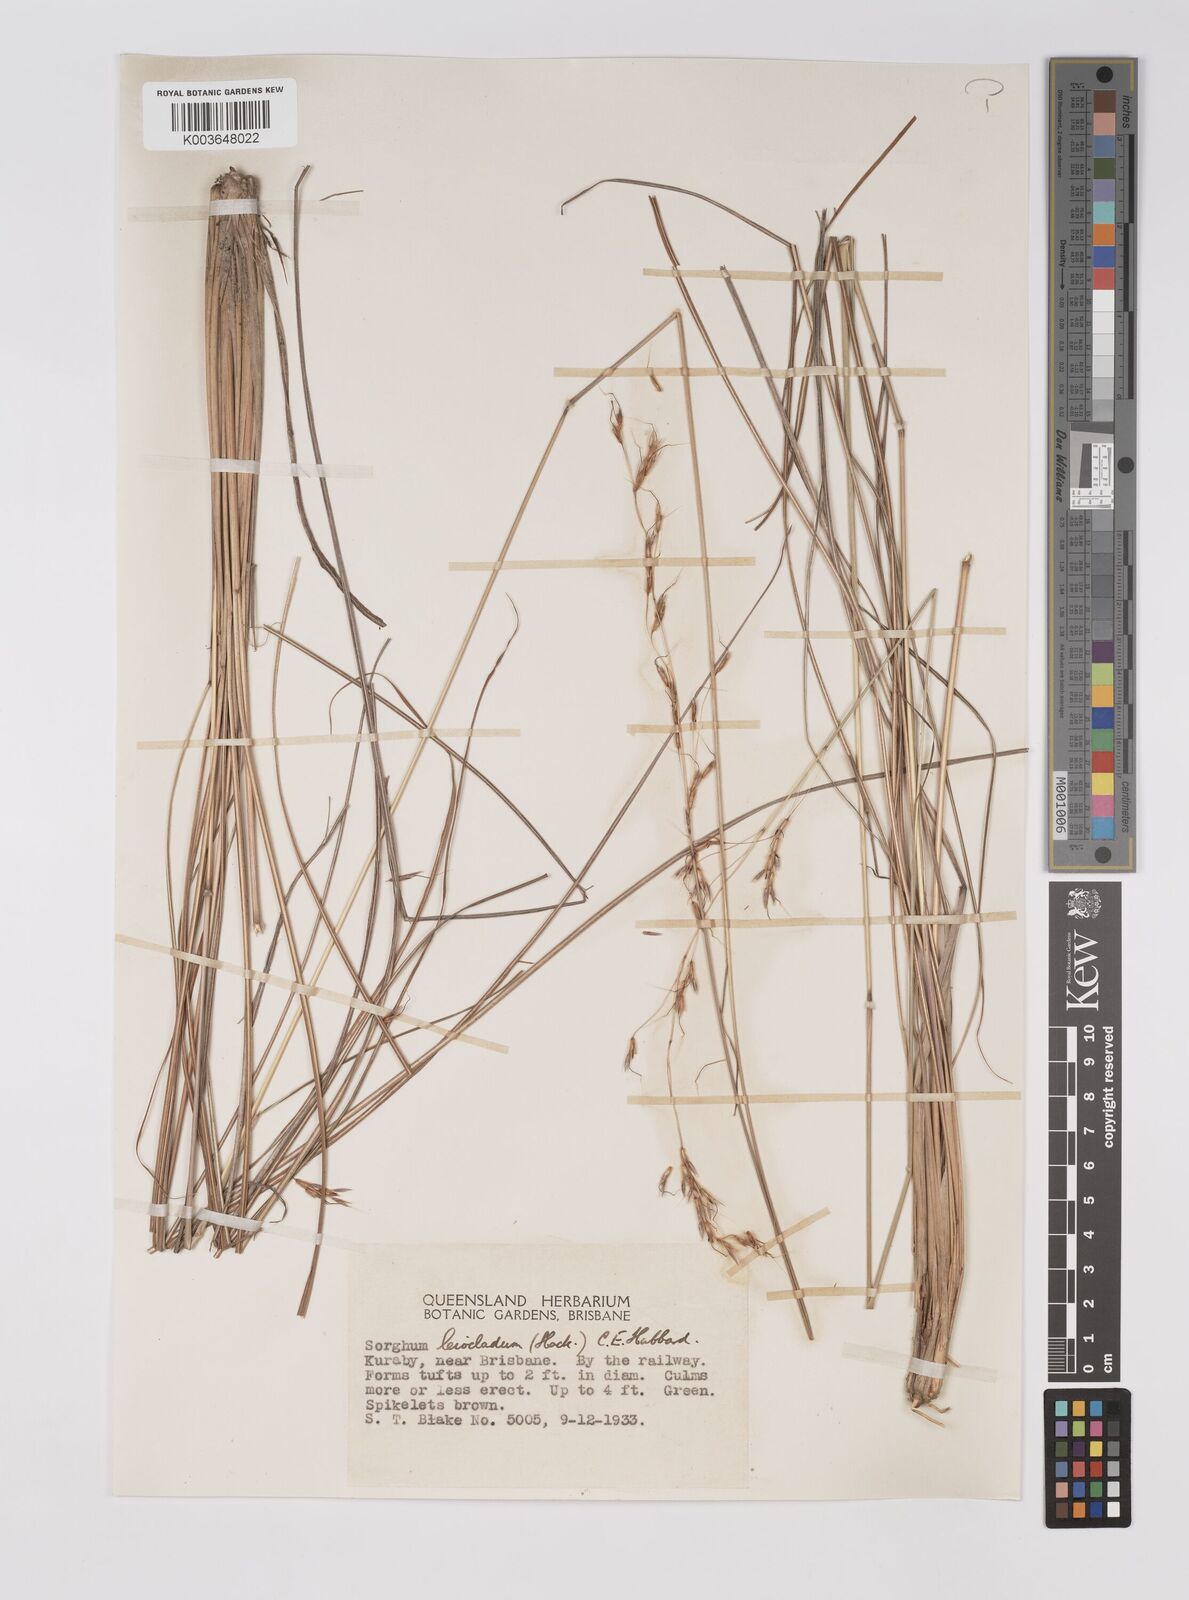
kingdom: Plantae
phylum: Tracheophyta
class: Liliopsida
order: Poales
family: Poaceae
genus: Sarga
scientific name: Sarga leioclada
